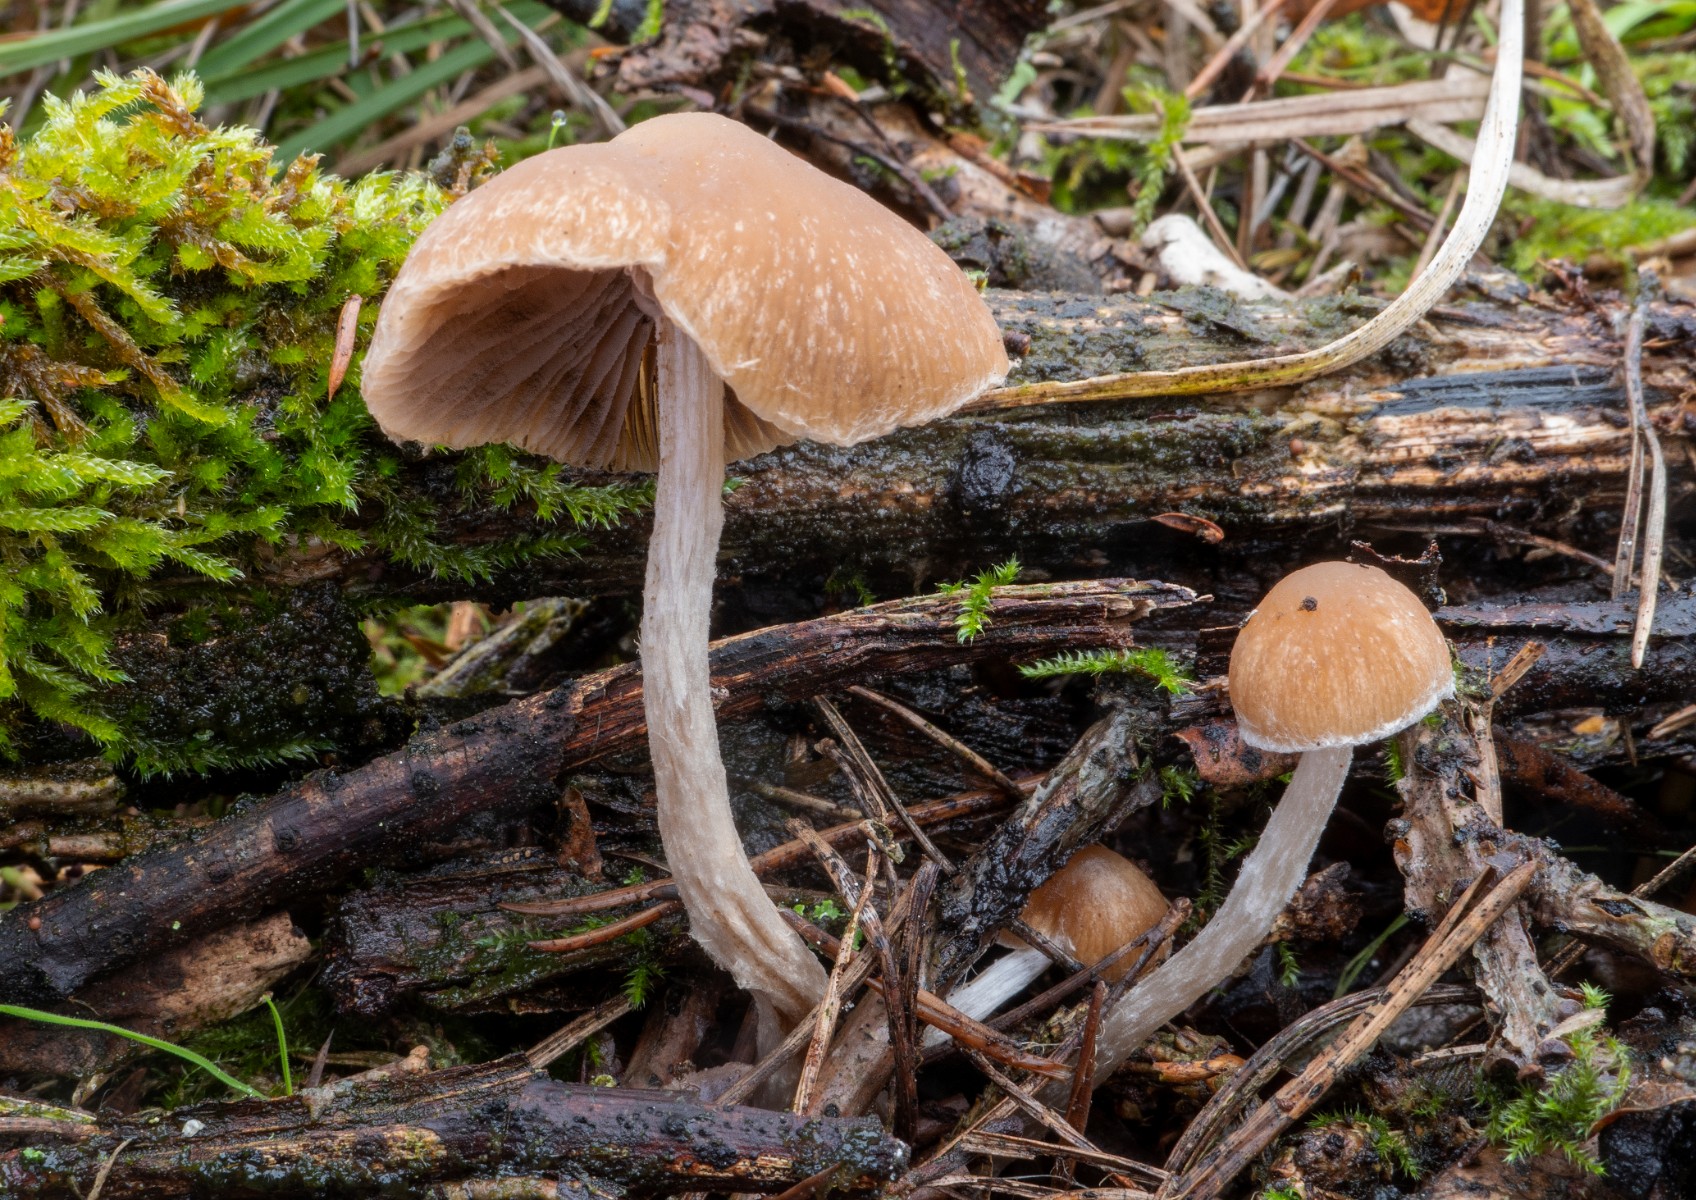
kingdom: Fungi
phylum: Basidiomycota
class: Agaricomycetes
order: Agaricales
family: Psathyrellaceae
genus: Psathyrella
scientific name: Psathyrella senex
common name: brunøjet mørkhat
